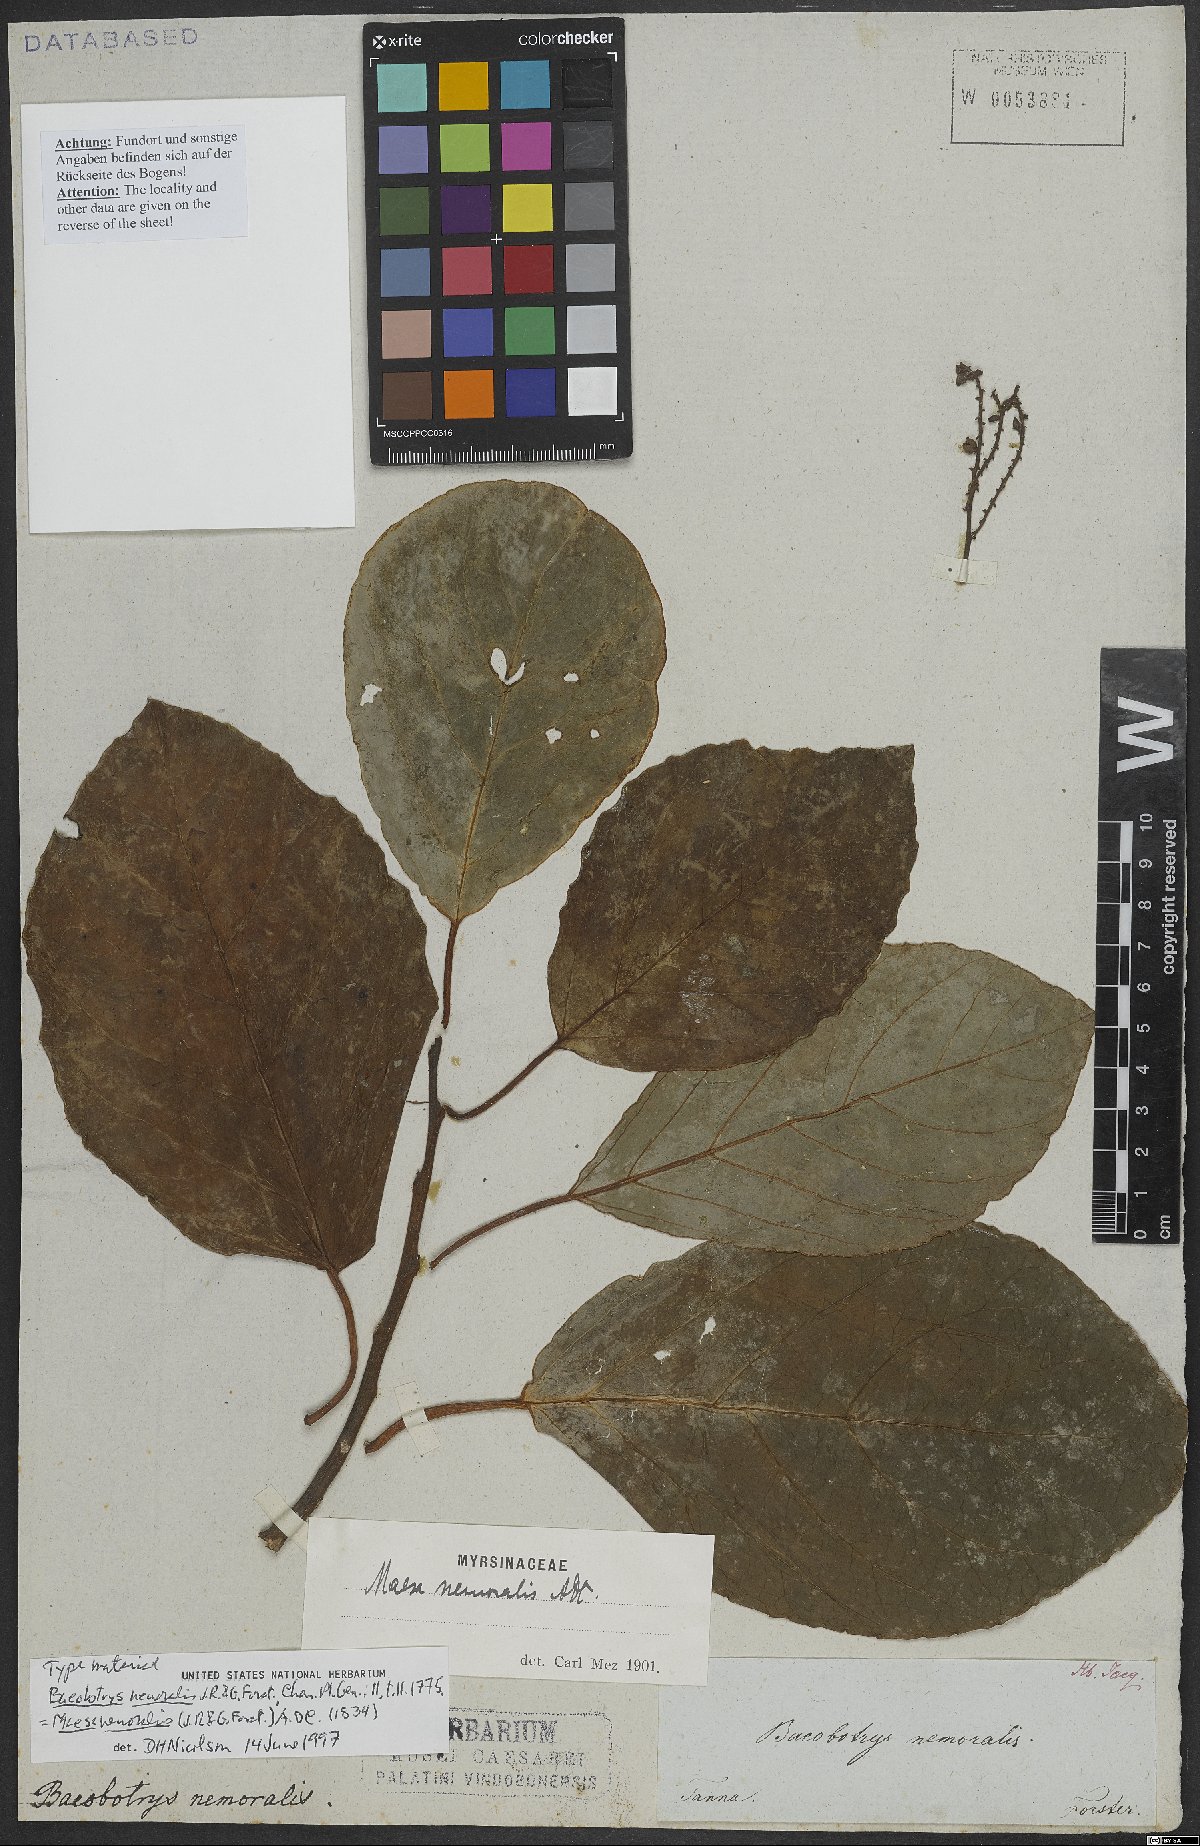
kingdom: Plantae
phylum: Tracheophyta
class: Magnoliopsida
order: Ericales
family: Primulaceae
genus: Maesa
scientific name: Maesa nemoralis
